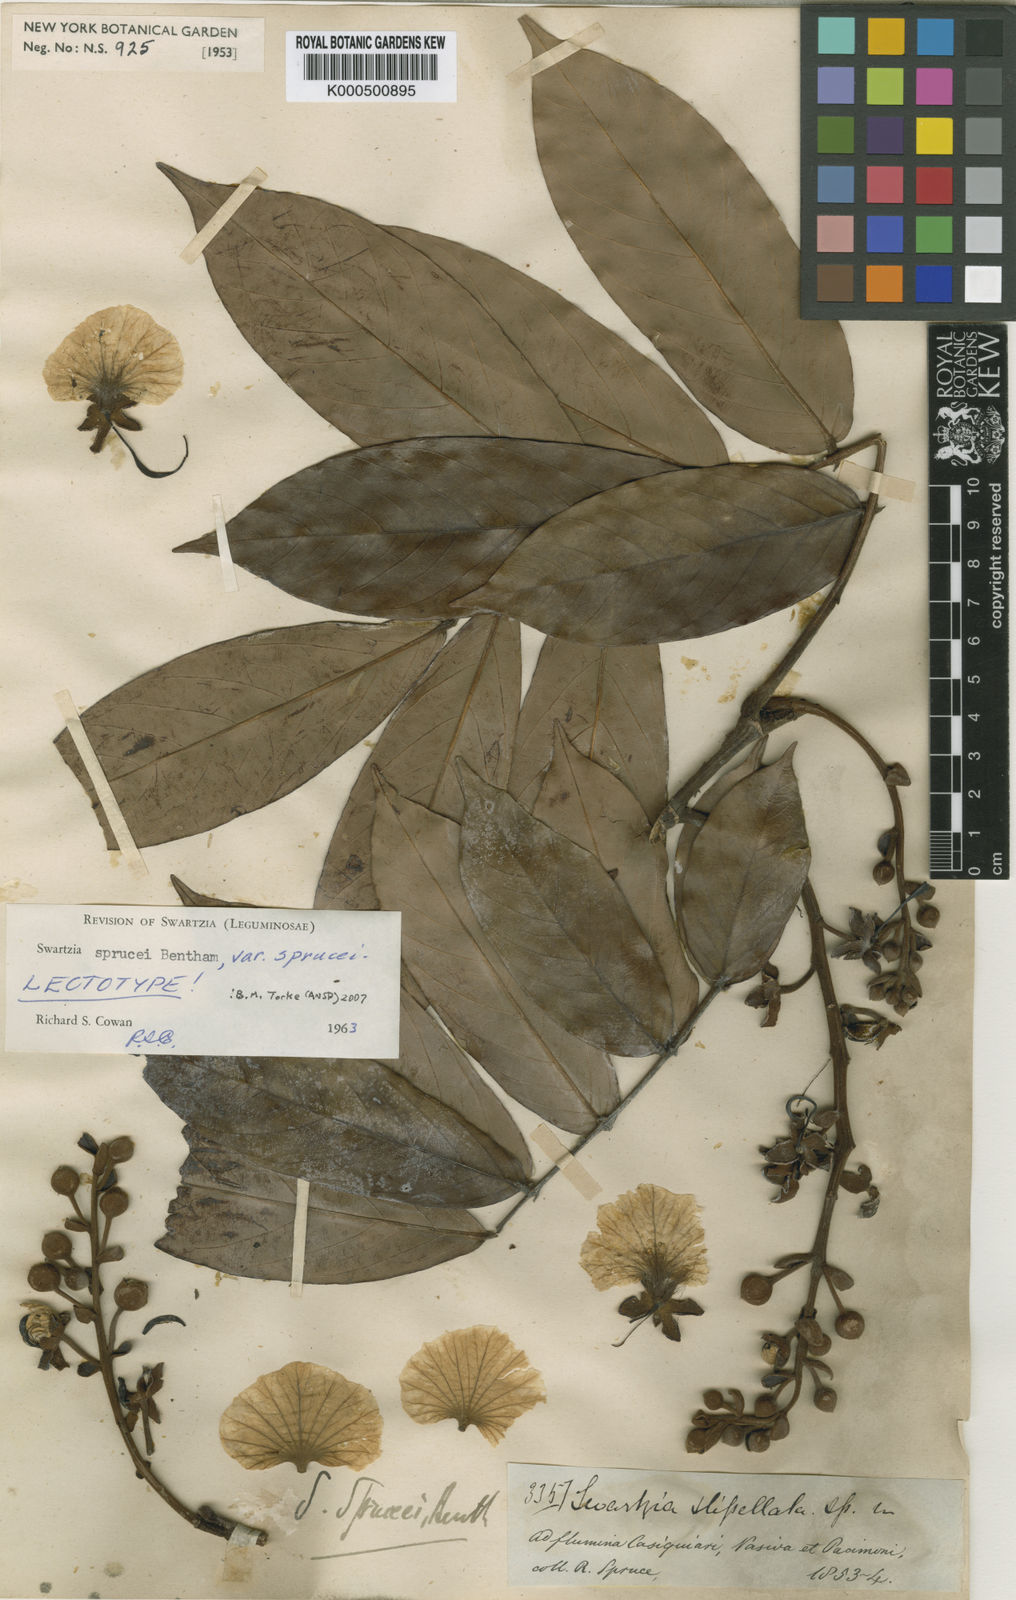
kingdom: Plantae
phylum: Tracheophyta
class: Magnoliopsida
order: Fabales
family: Fabaceae
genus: Swartzia
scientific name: Swartzia sprucei
